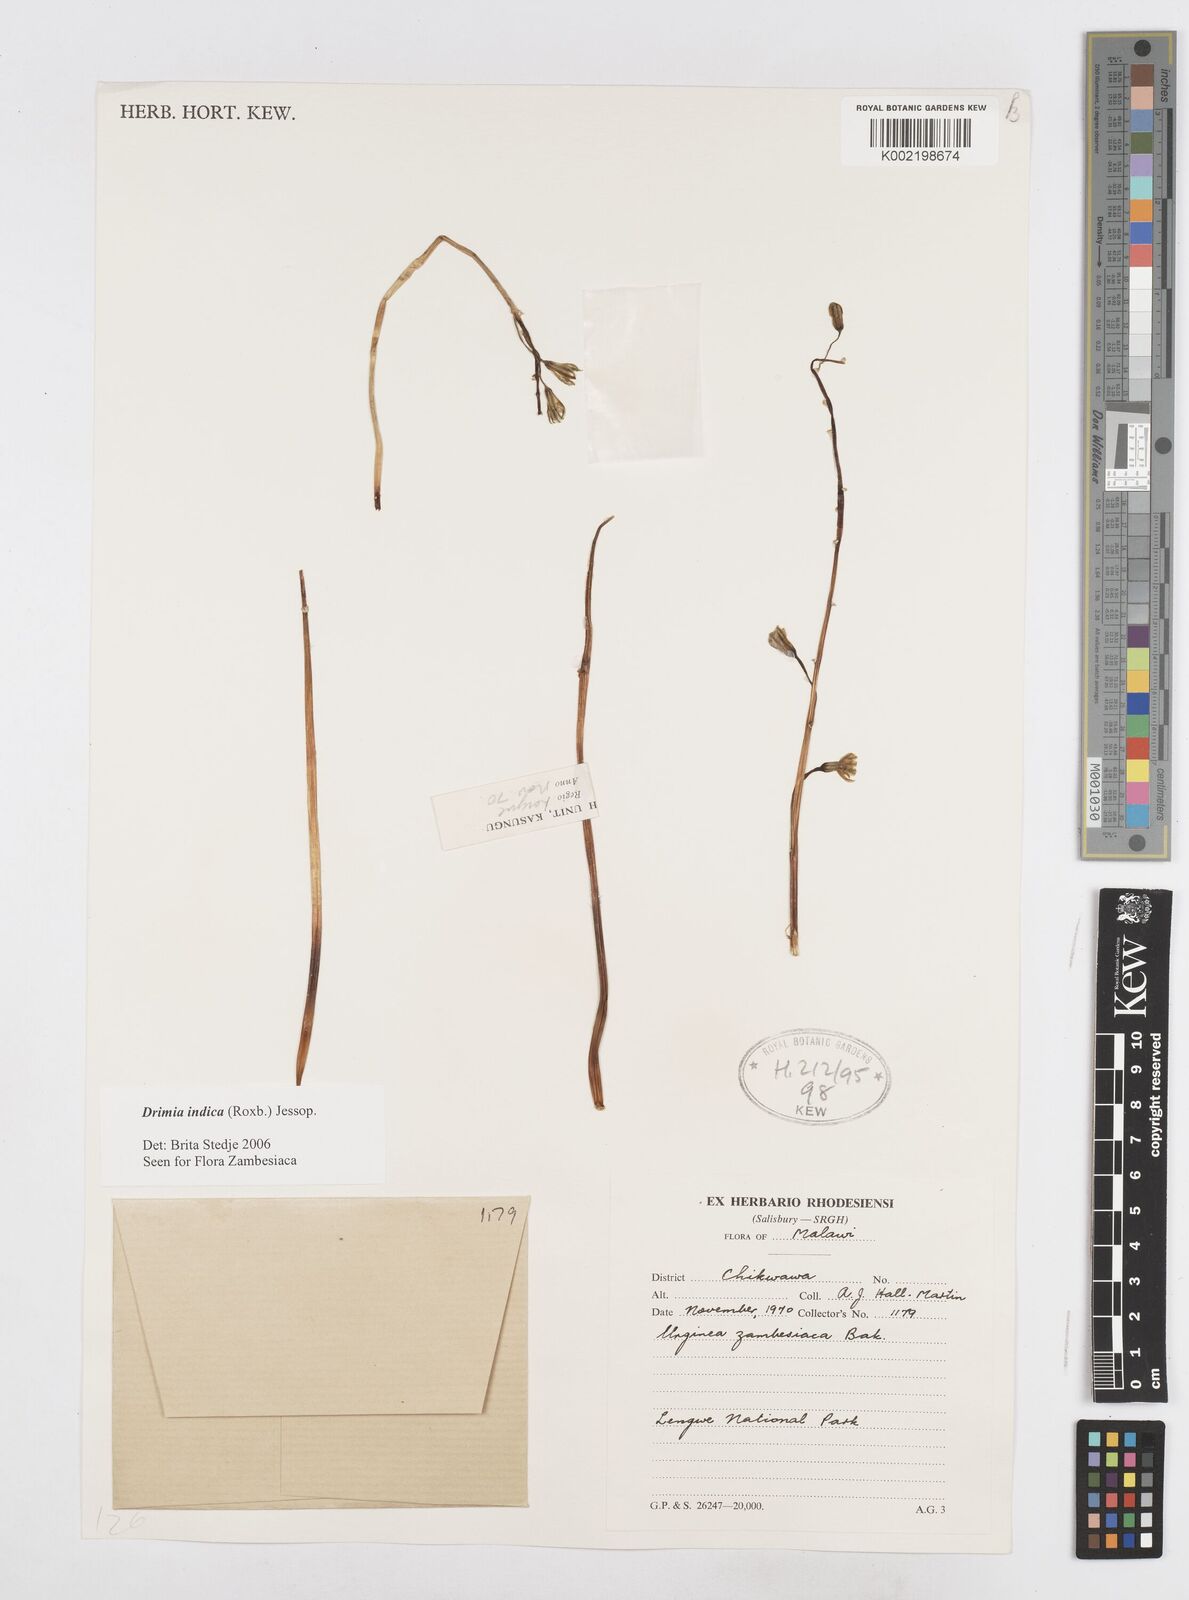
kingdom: Plantae
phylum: Tracheophyta
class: Liliopsida
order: Asparagales
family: Asparagaceae
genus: Drimia
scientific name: Drimia indica
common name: Indian-squill
